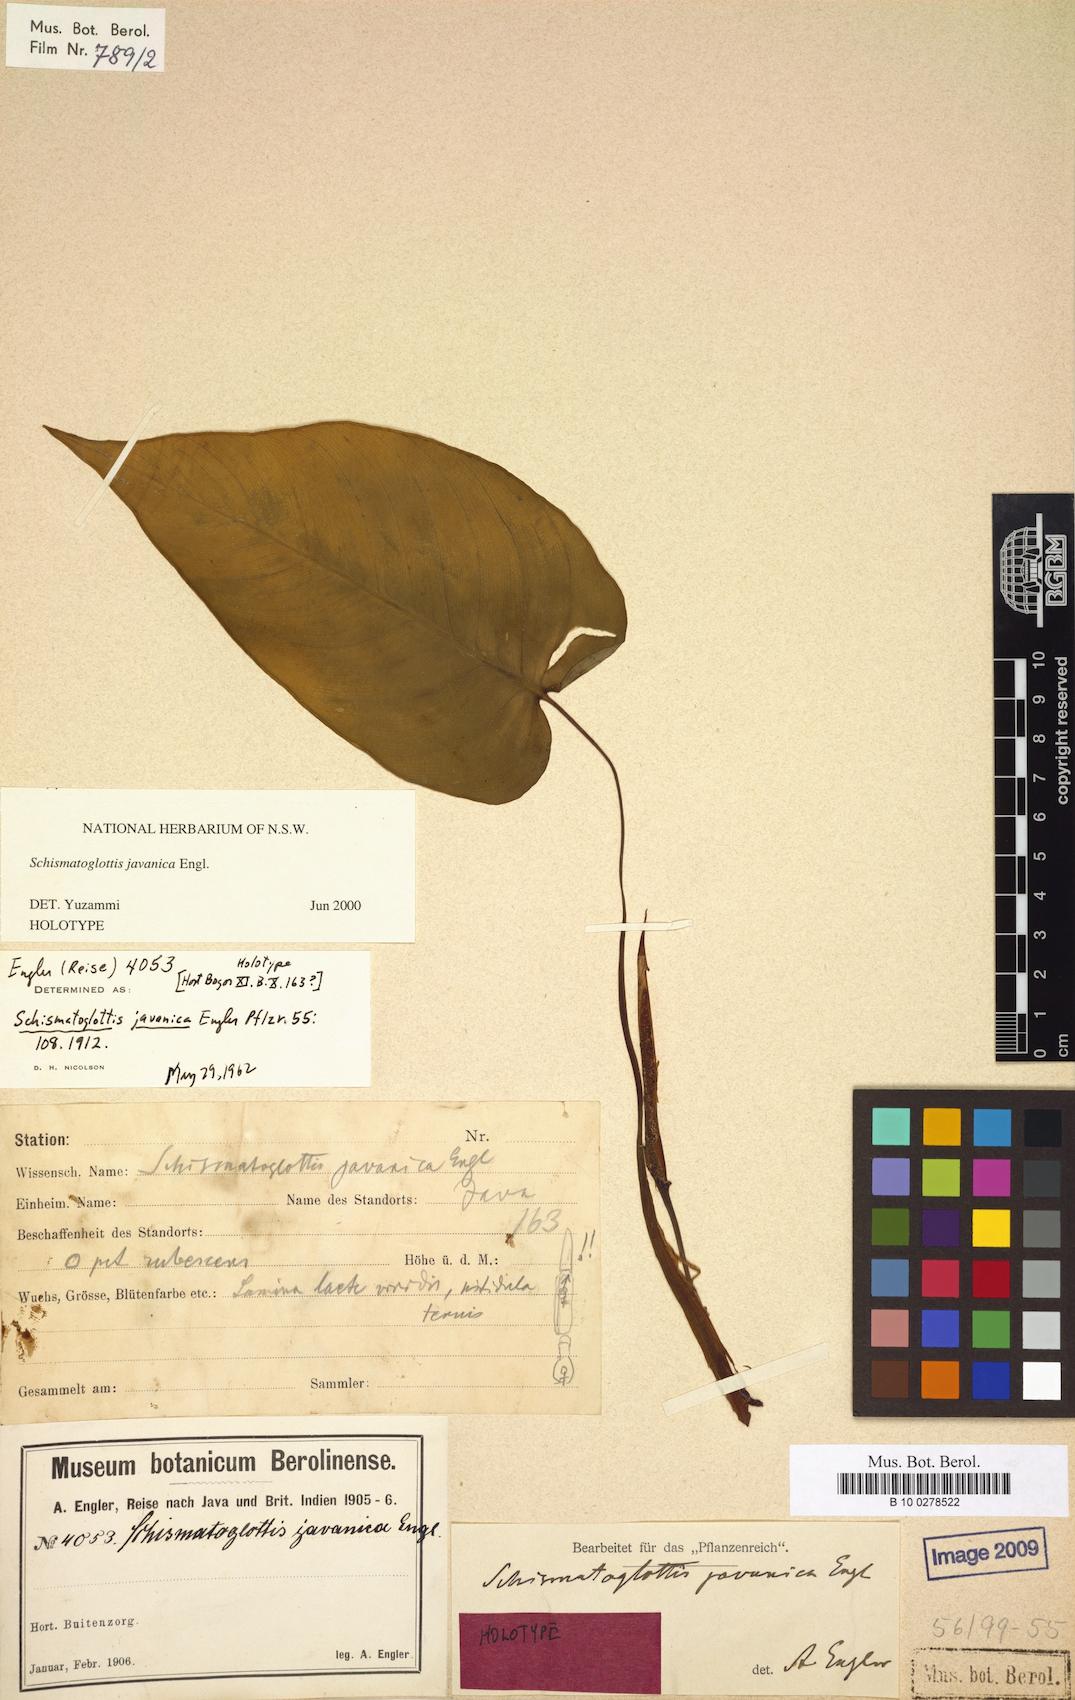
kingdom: Plantae
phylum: Tracheophyta
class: Liliopsida
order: Alismatales
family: Araceae
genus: Apoballis
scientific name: Apoballis javanica
